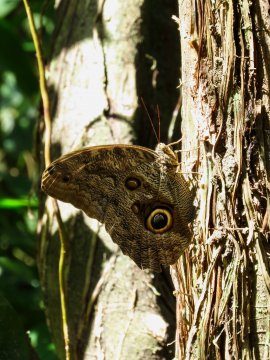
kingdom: Animalia
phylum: Arthropoda
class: Insecta
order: Lepidoptera
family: Nymphalidae
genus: Caligo
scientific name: Caligo brasiliensis
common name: Dark Owl-Butterfly
